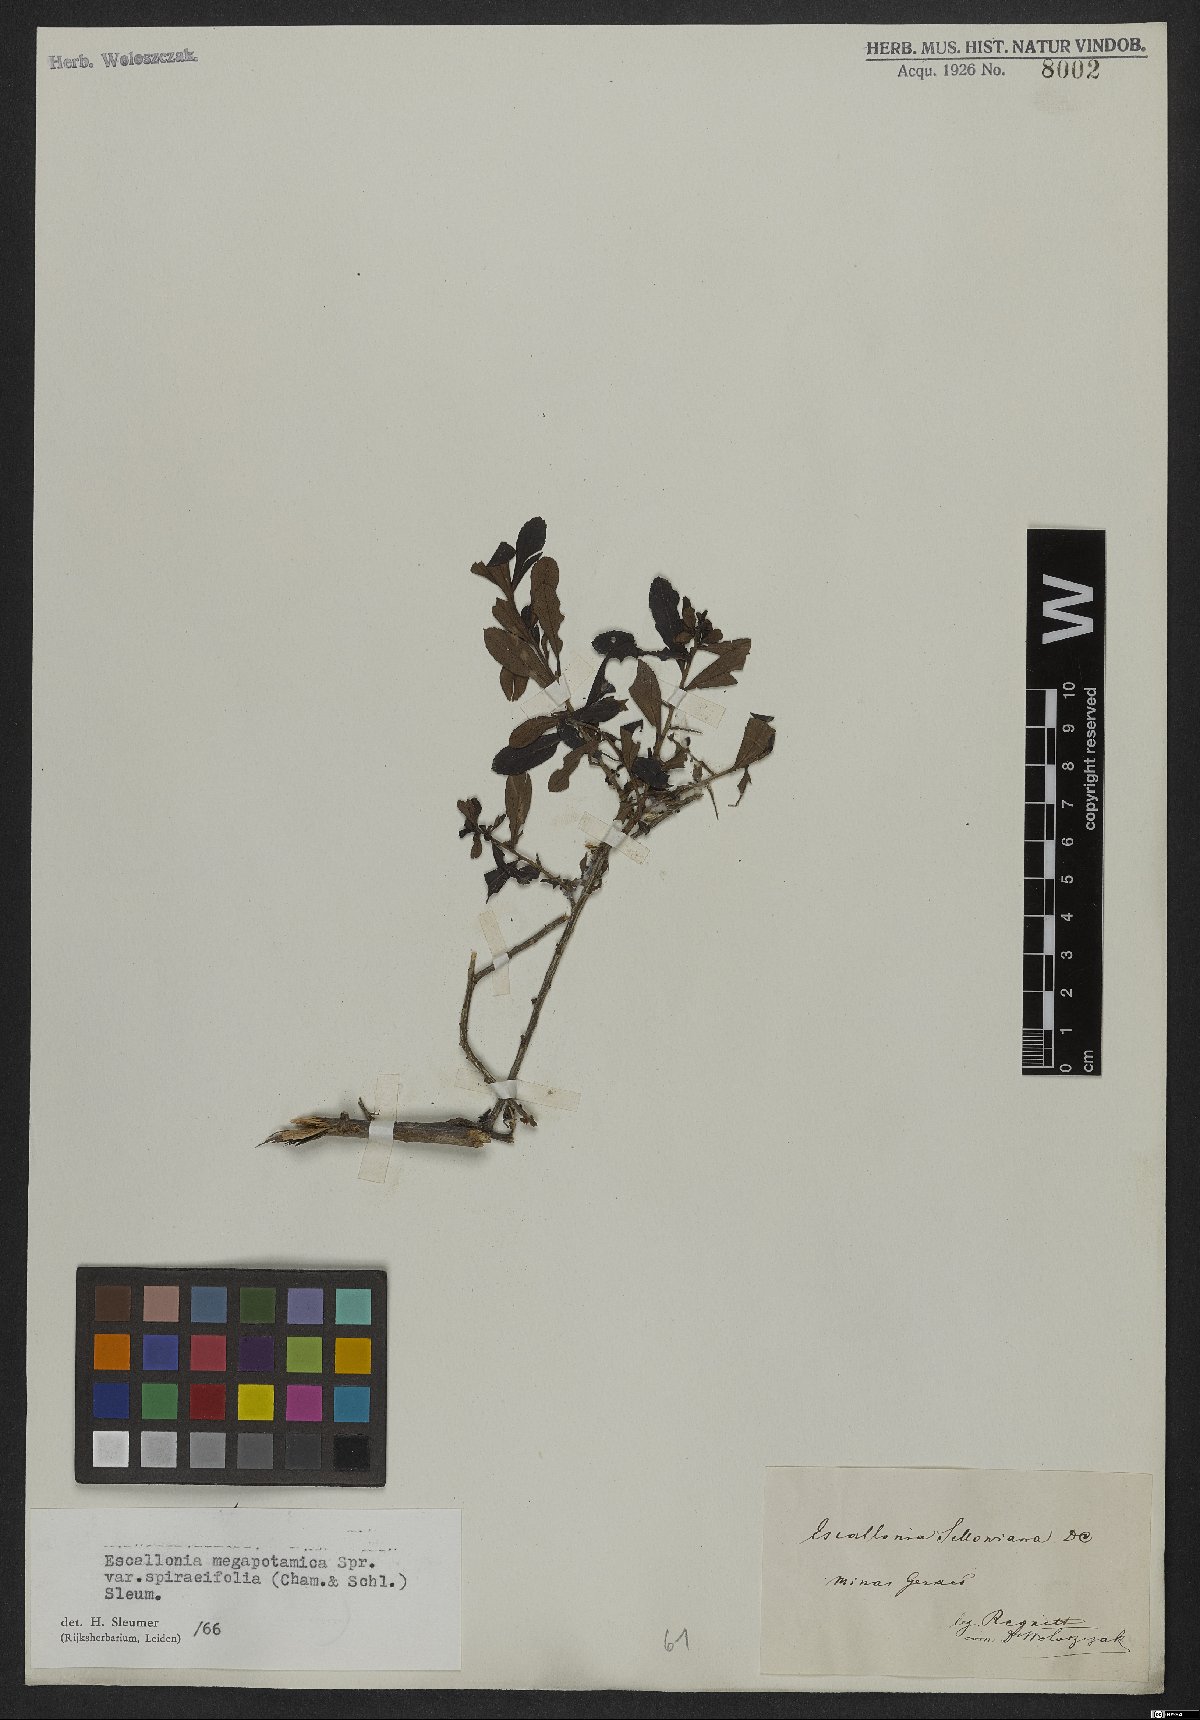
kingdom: Plantae
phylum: Tracheophyta
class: Magnoliopsida
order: Escalloniales
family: Escalloniaceae
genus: Escallonia
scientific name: Escallonia megapotamica
